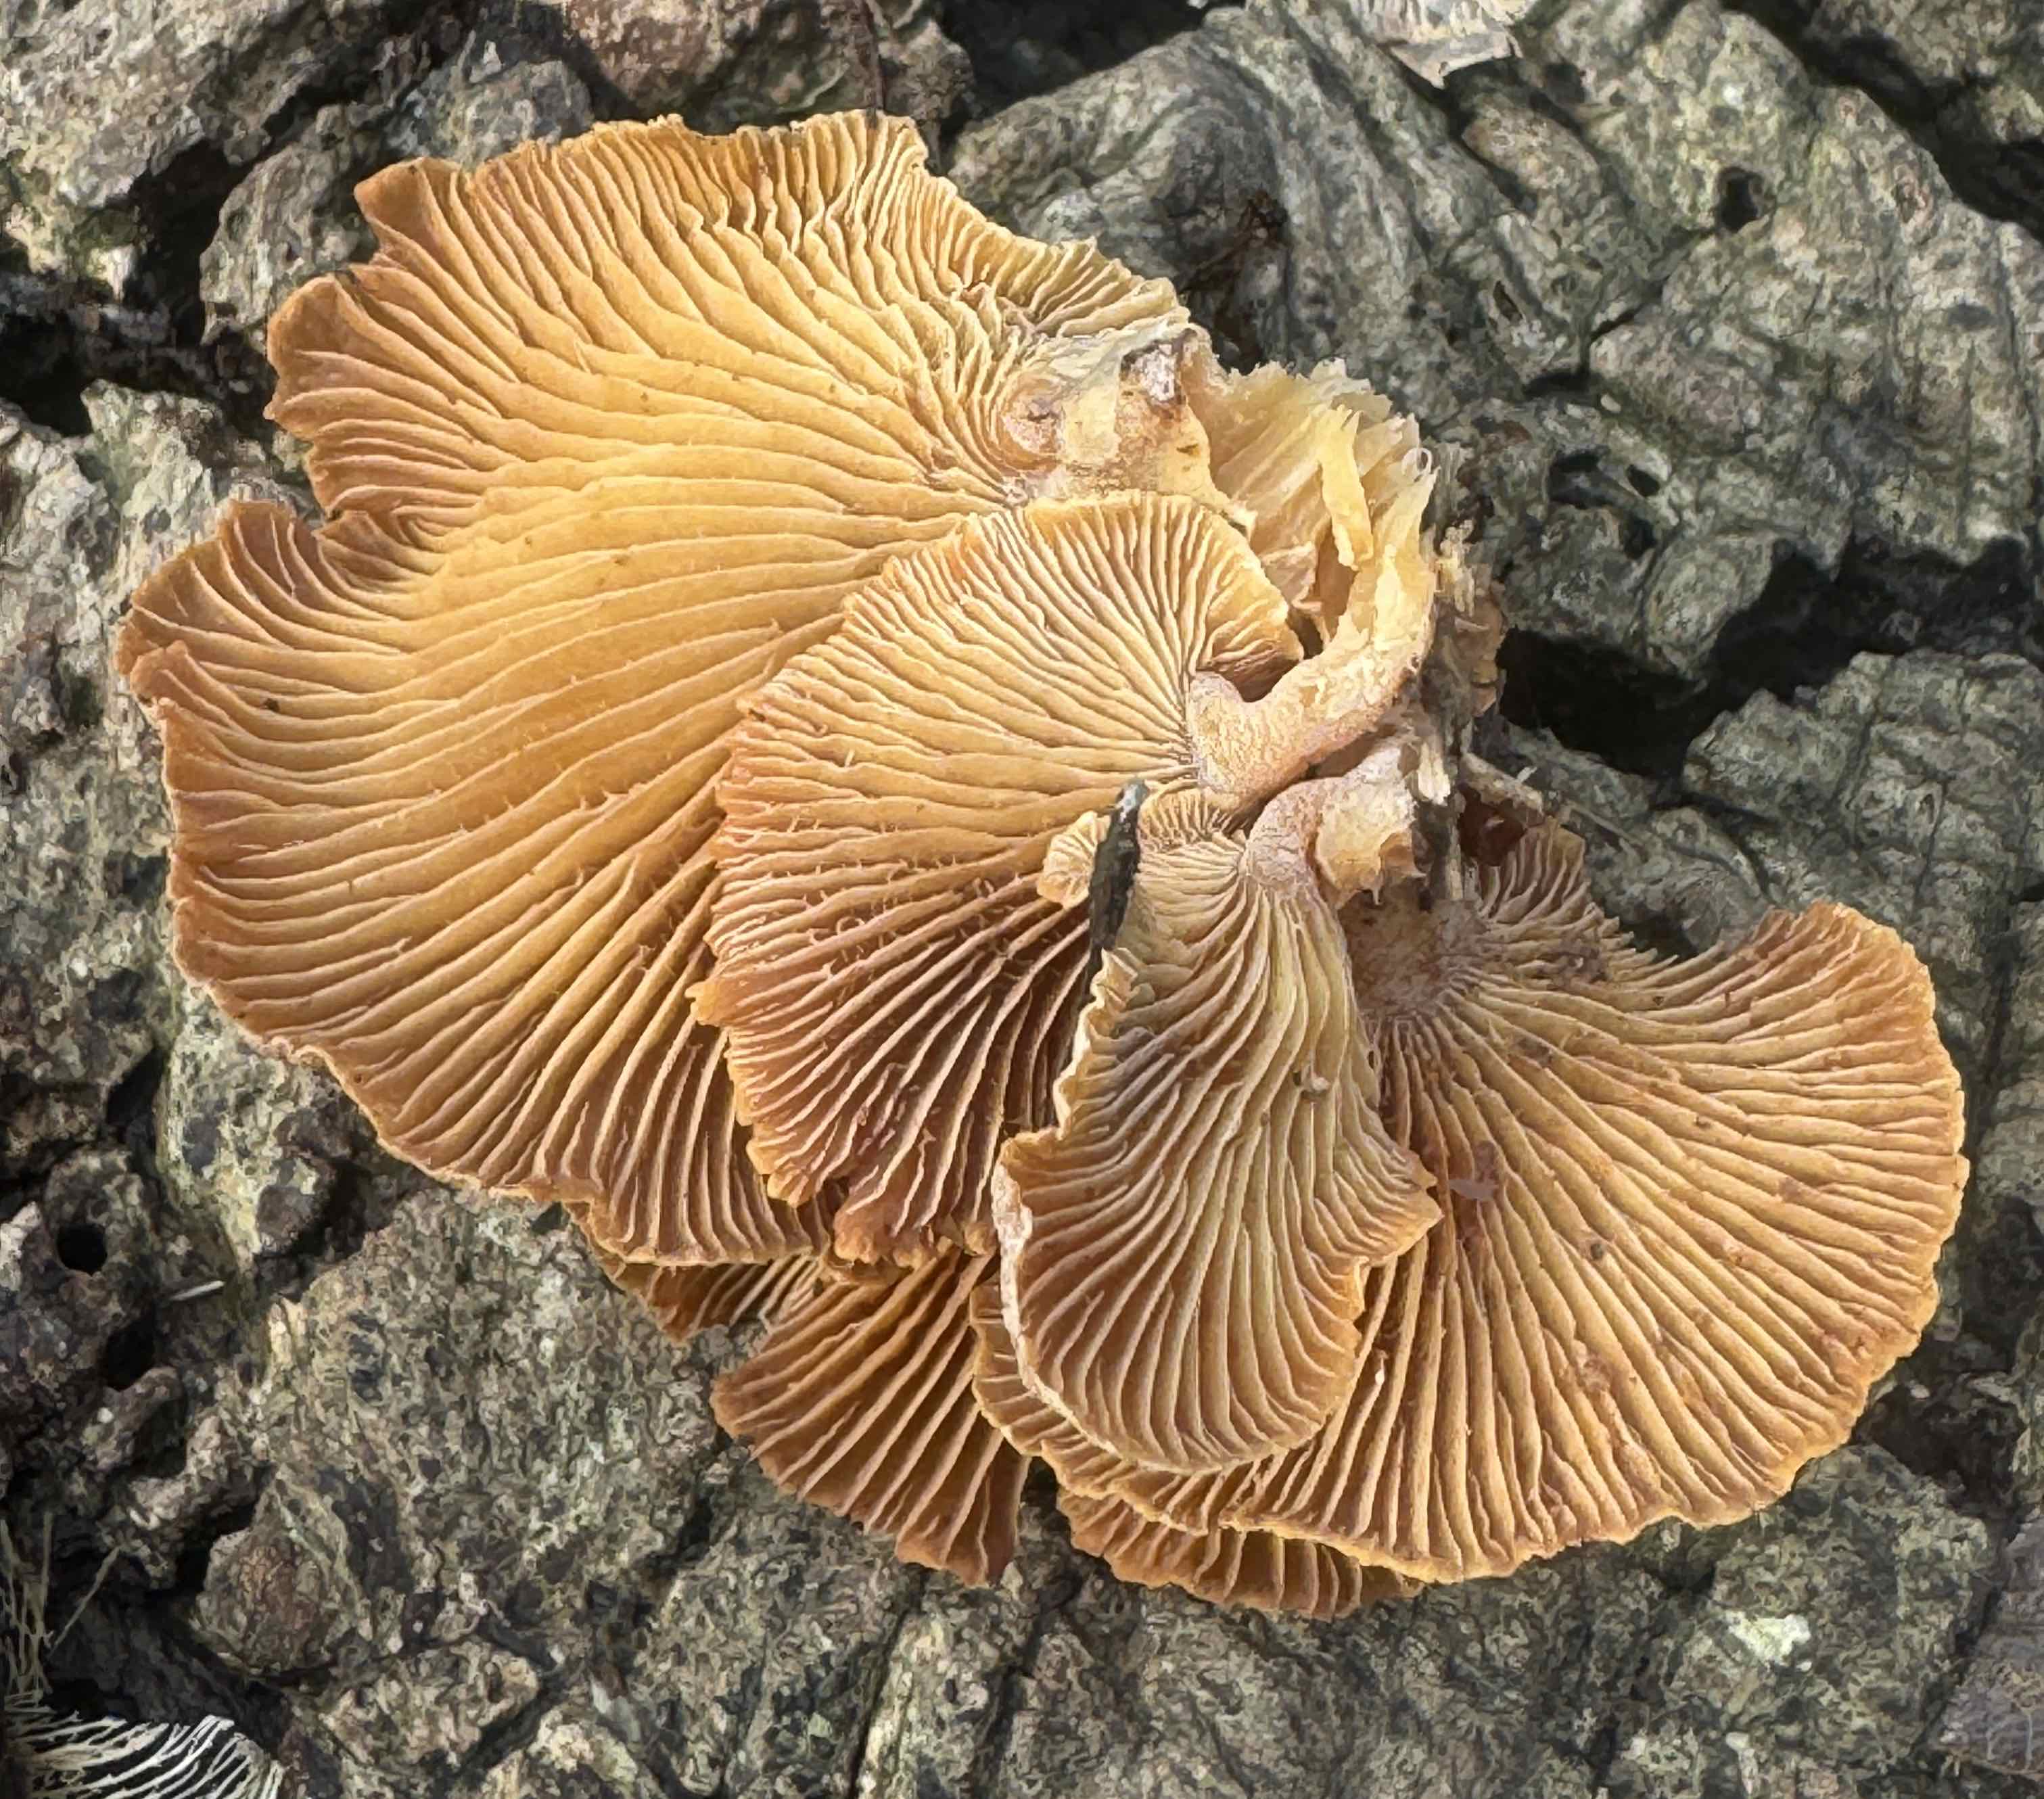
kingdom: Fungi
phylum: Basidiomycota
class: Agaricomycetes
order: Agaricales
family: Mycenaceae
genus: Panellus
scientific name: Panellus stipticus
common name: kliddet epaulethat
